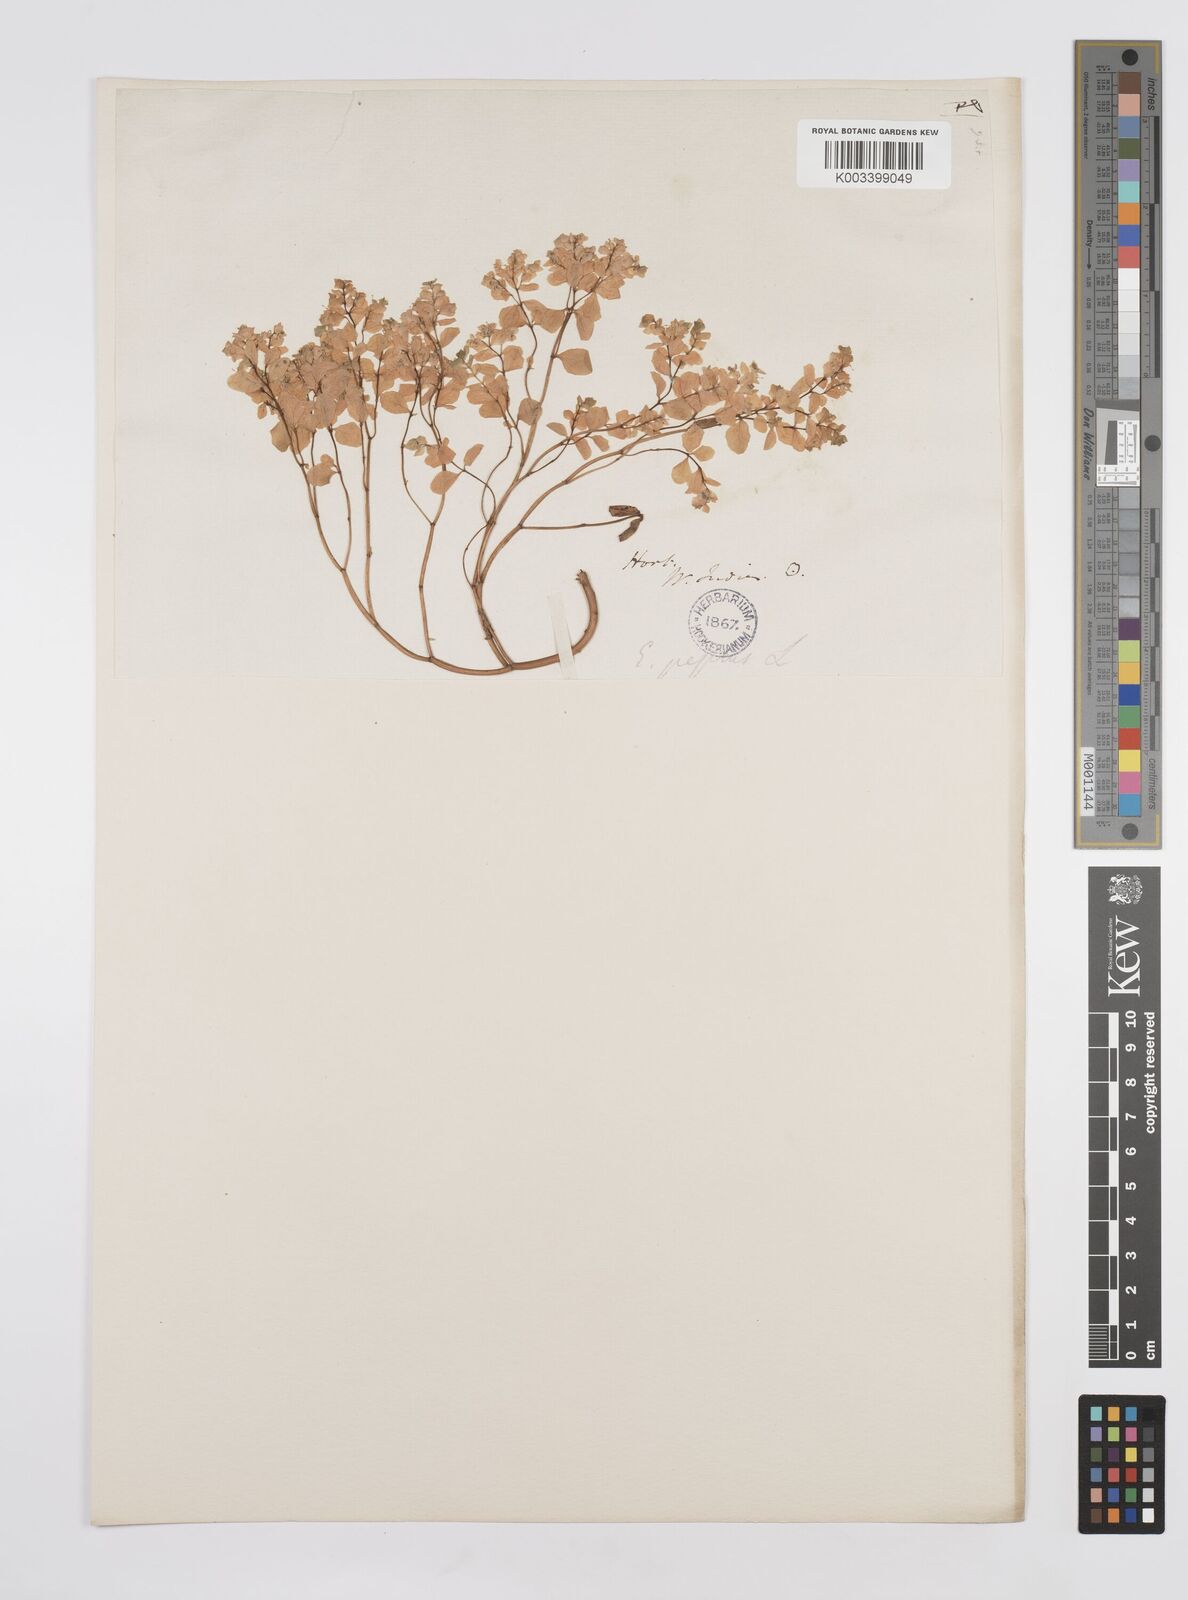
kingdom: Plantae
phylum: Tracheophyta
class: Magnoliopsida
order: Malpighiales
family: Euphorbiaceae
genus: Euphorbia
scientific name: Euphorbia peplus
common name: Petty spurge
